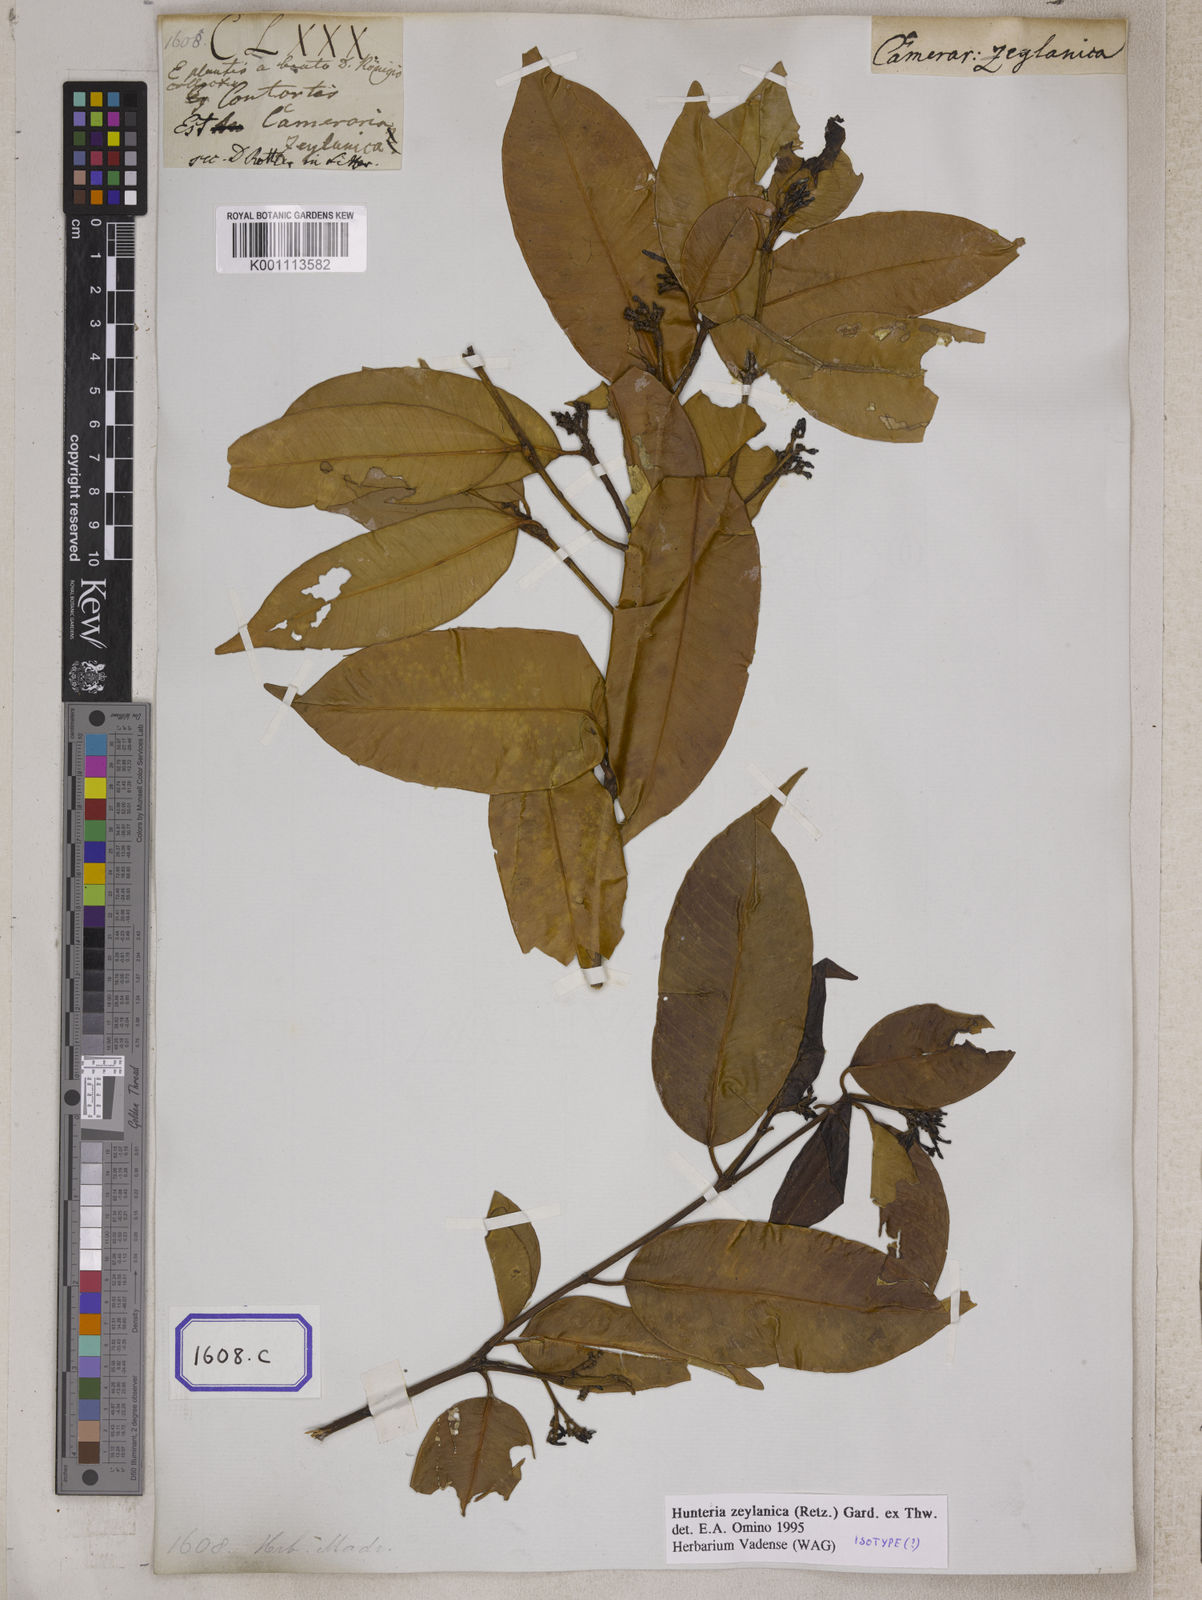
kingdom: Plantae
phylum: Tracheophyta
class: Magnoliopsida
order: Gentianales
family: Apocynaceae
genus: Hunteria
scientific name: Hunteria zeylanica
